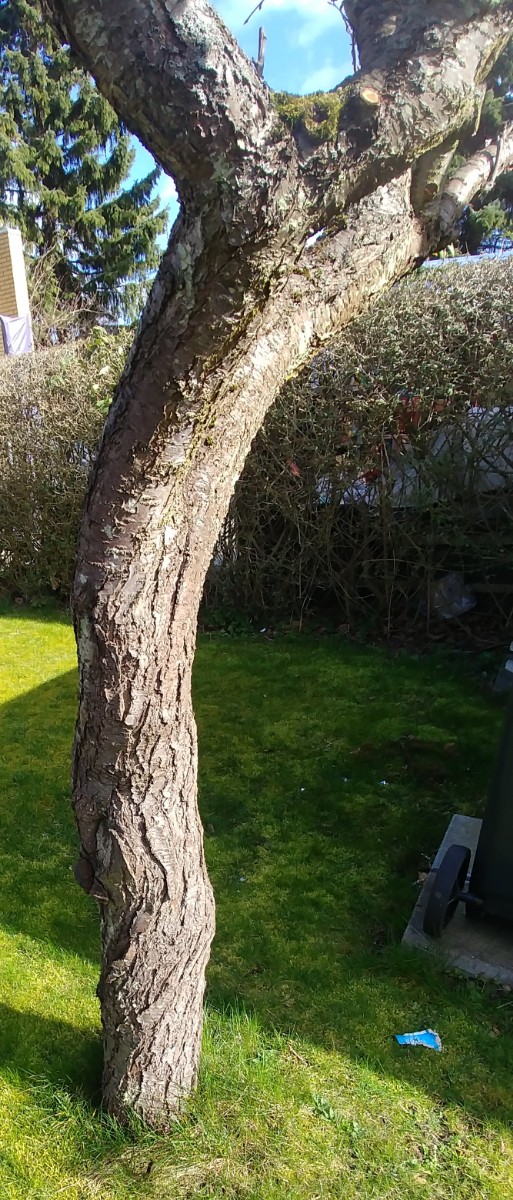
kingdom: Fungi
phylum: Basidiomycota
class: Agaricomycetes
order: Hymenochaetales
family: Hymenochaetaceae
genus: Phellinus
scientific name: Phellinus pomaceus
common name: blomme-ildporesvamp
